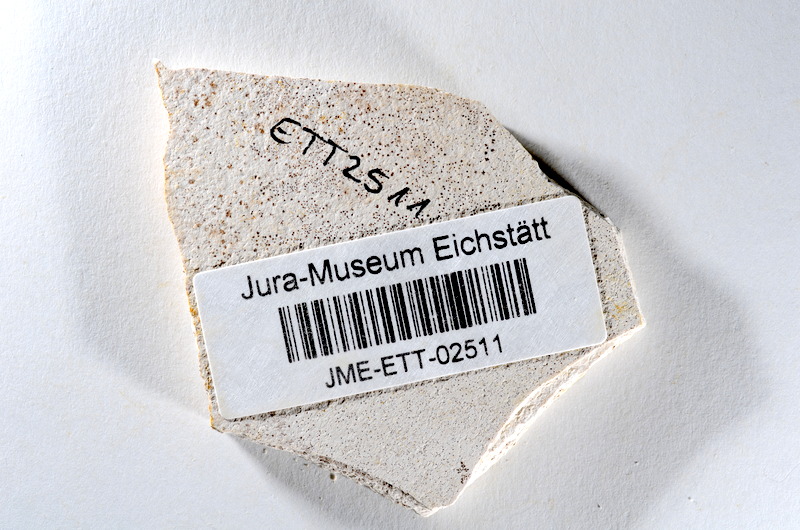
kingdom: Animalia
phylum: Chordata
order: Salmoniformes
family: Orthogonikleithridae
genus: Orthogonikleithrus
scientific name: Orthogonikleithrus hoelli
